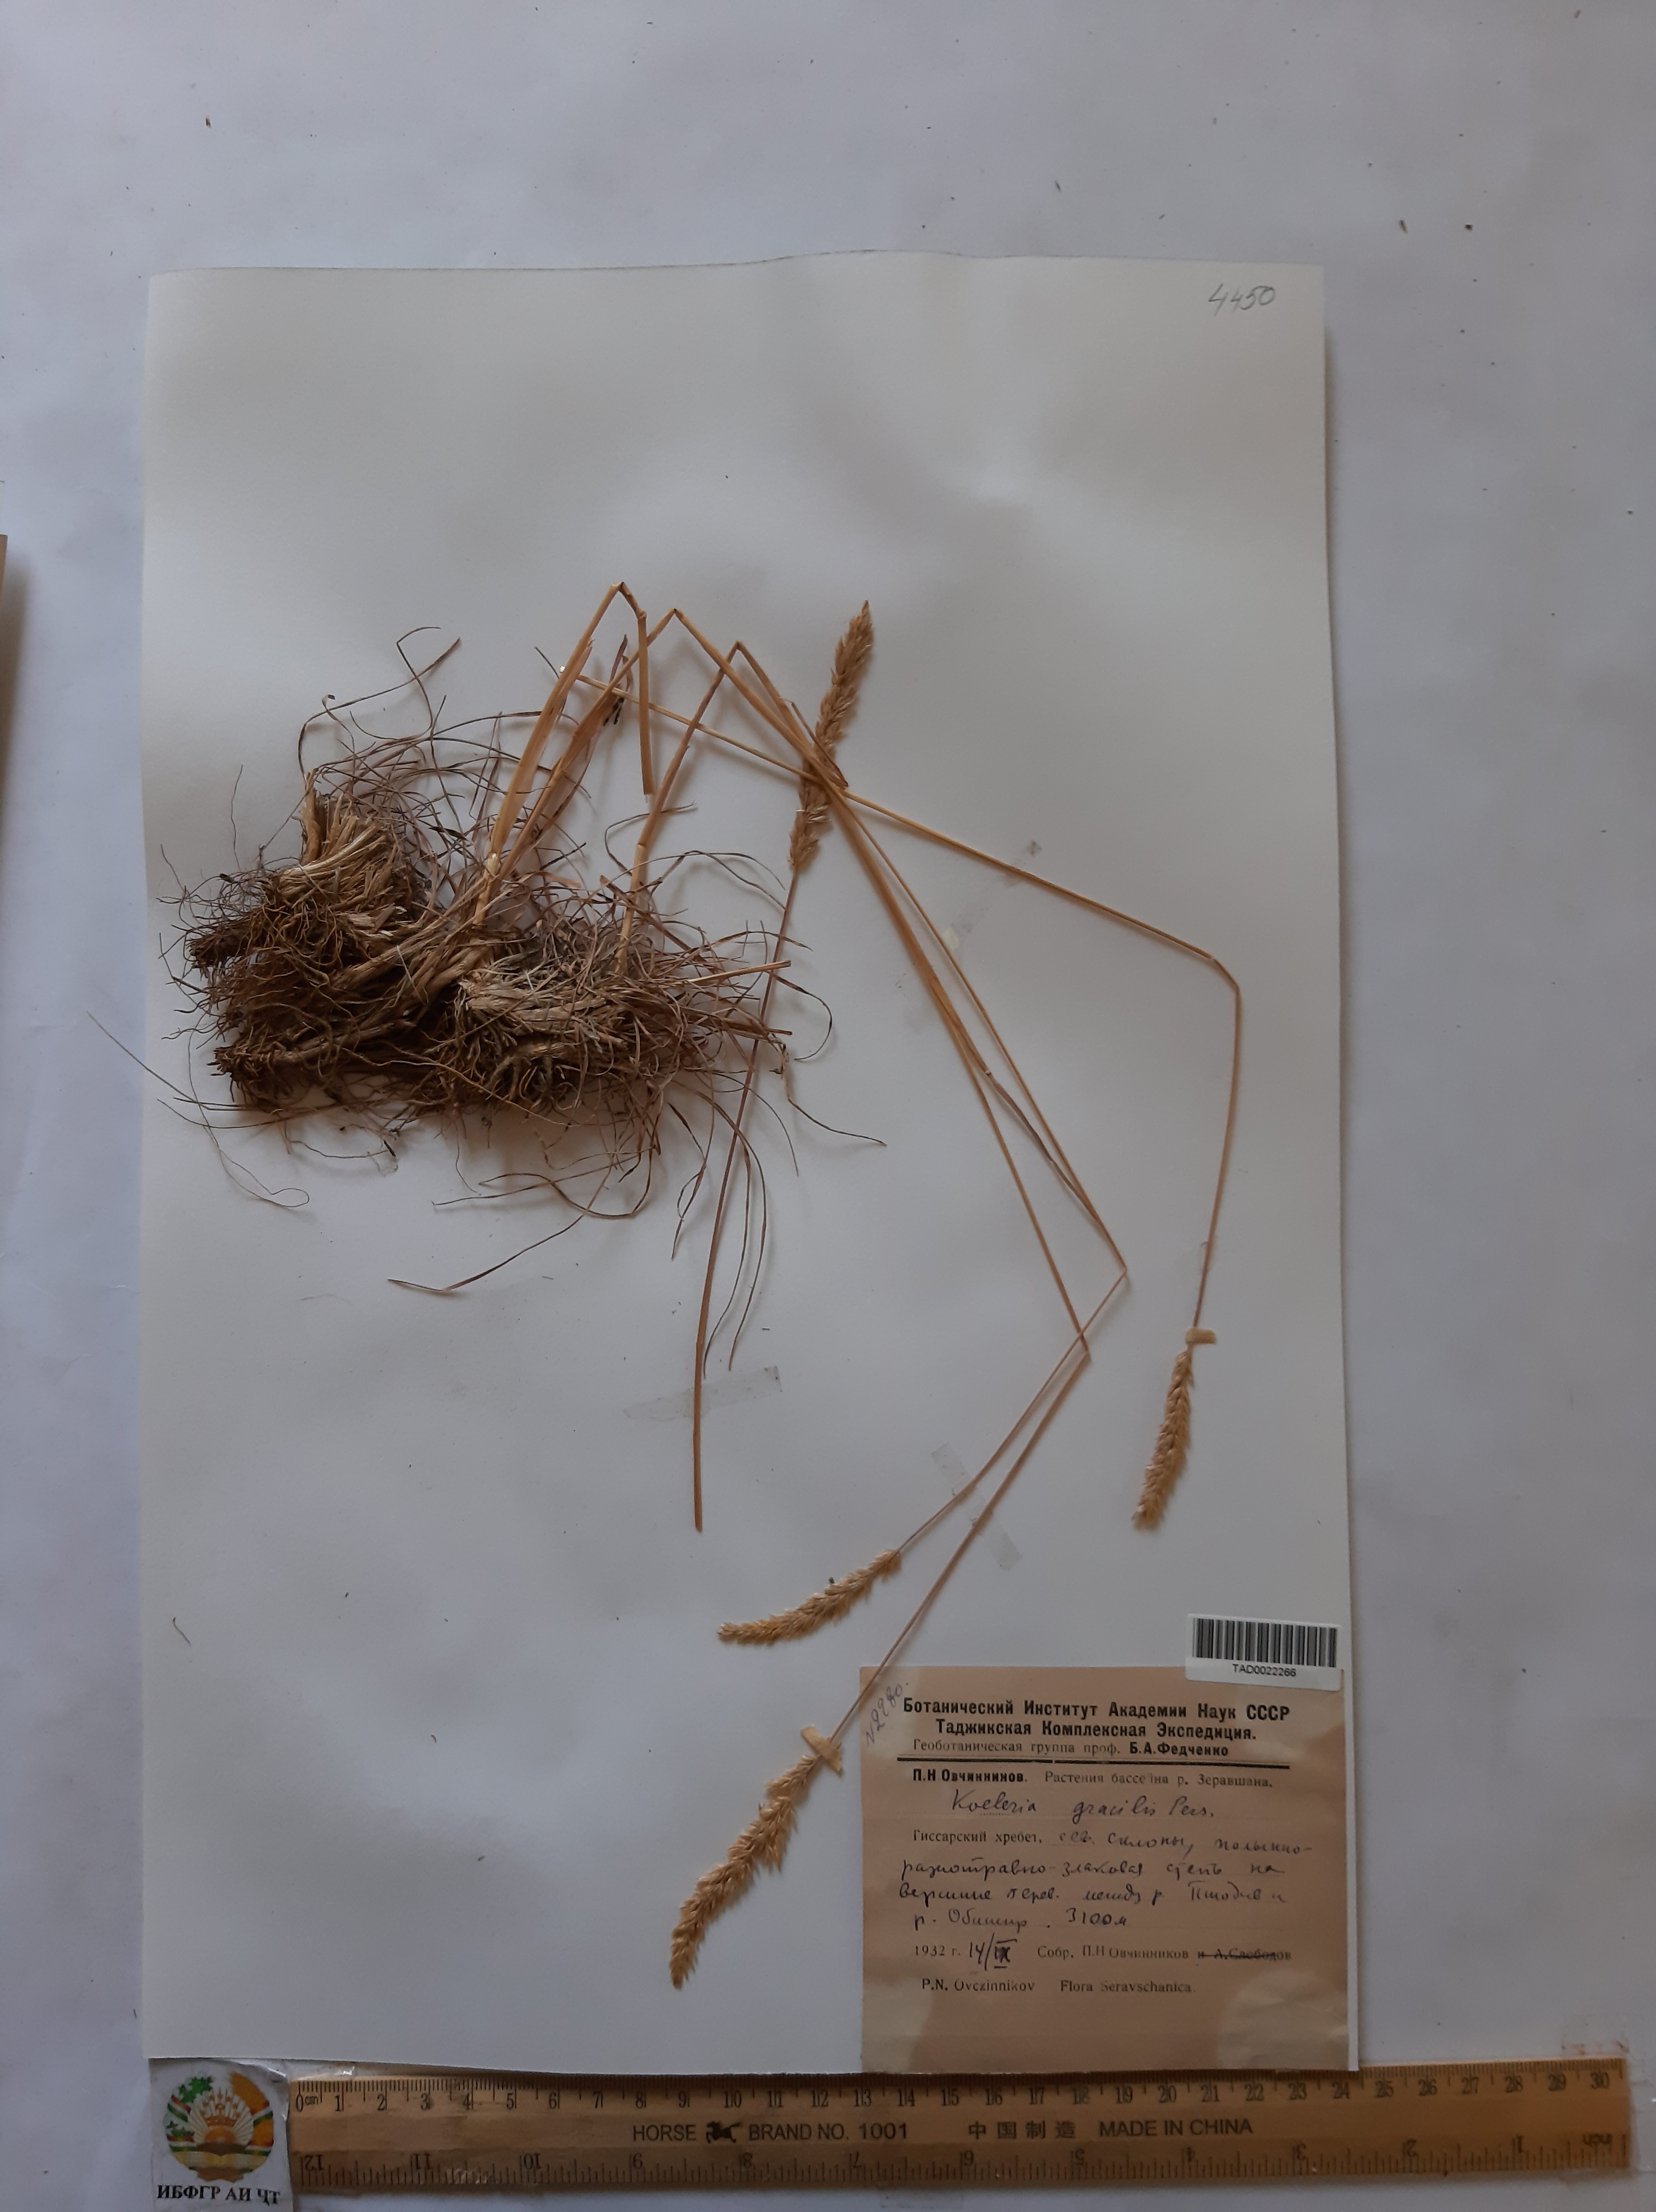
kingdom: Plantae
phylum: Tracheophyta
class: Liliopsida
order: Poales
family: Poaceae
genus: Koeleria
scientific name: Koeleria macrantha
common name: Crested hair-grass
